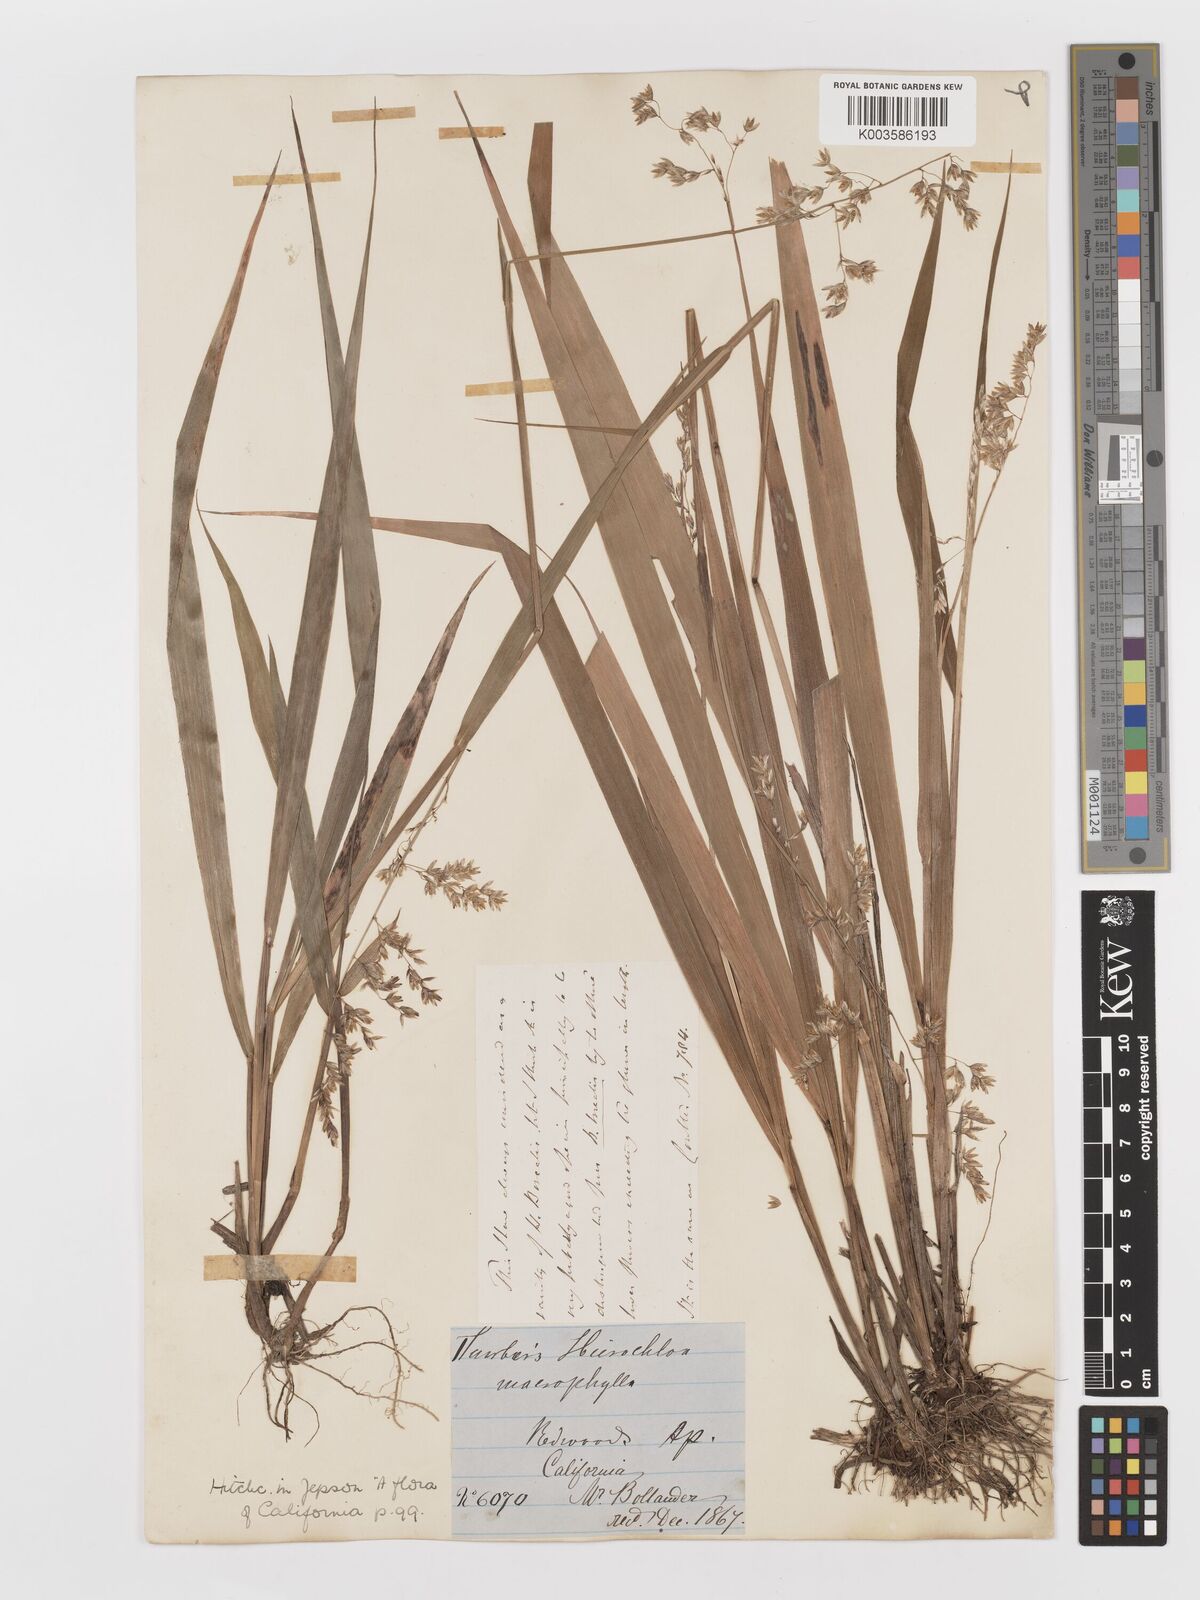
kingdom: Plantae
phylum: Tracheophyta
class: Liliopsida
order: Poales
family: Poaceae
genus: Anthoxanthum
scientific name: Anthoxanthum occidentale
